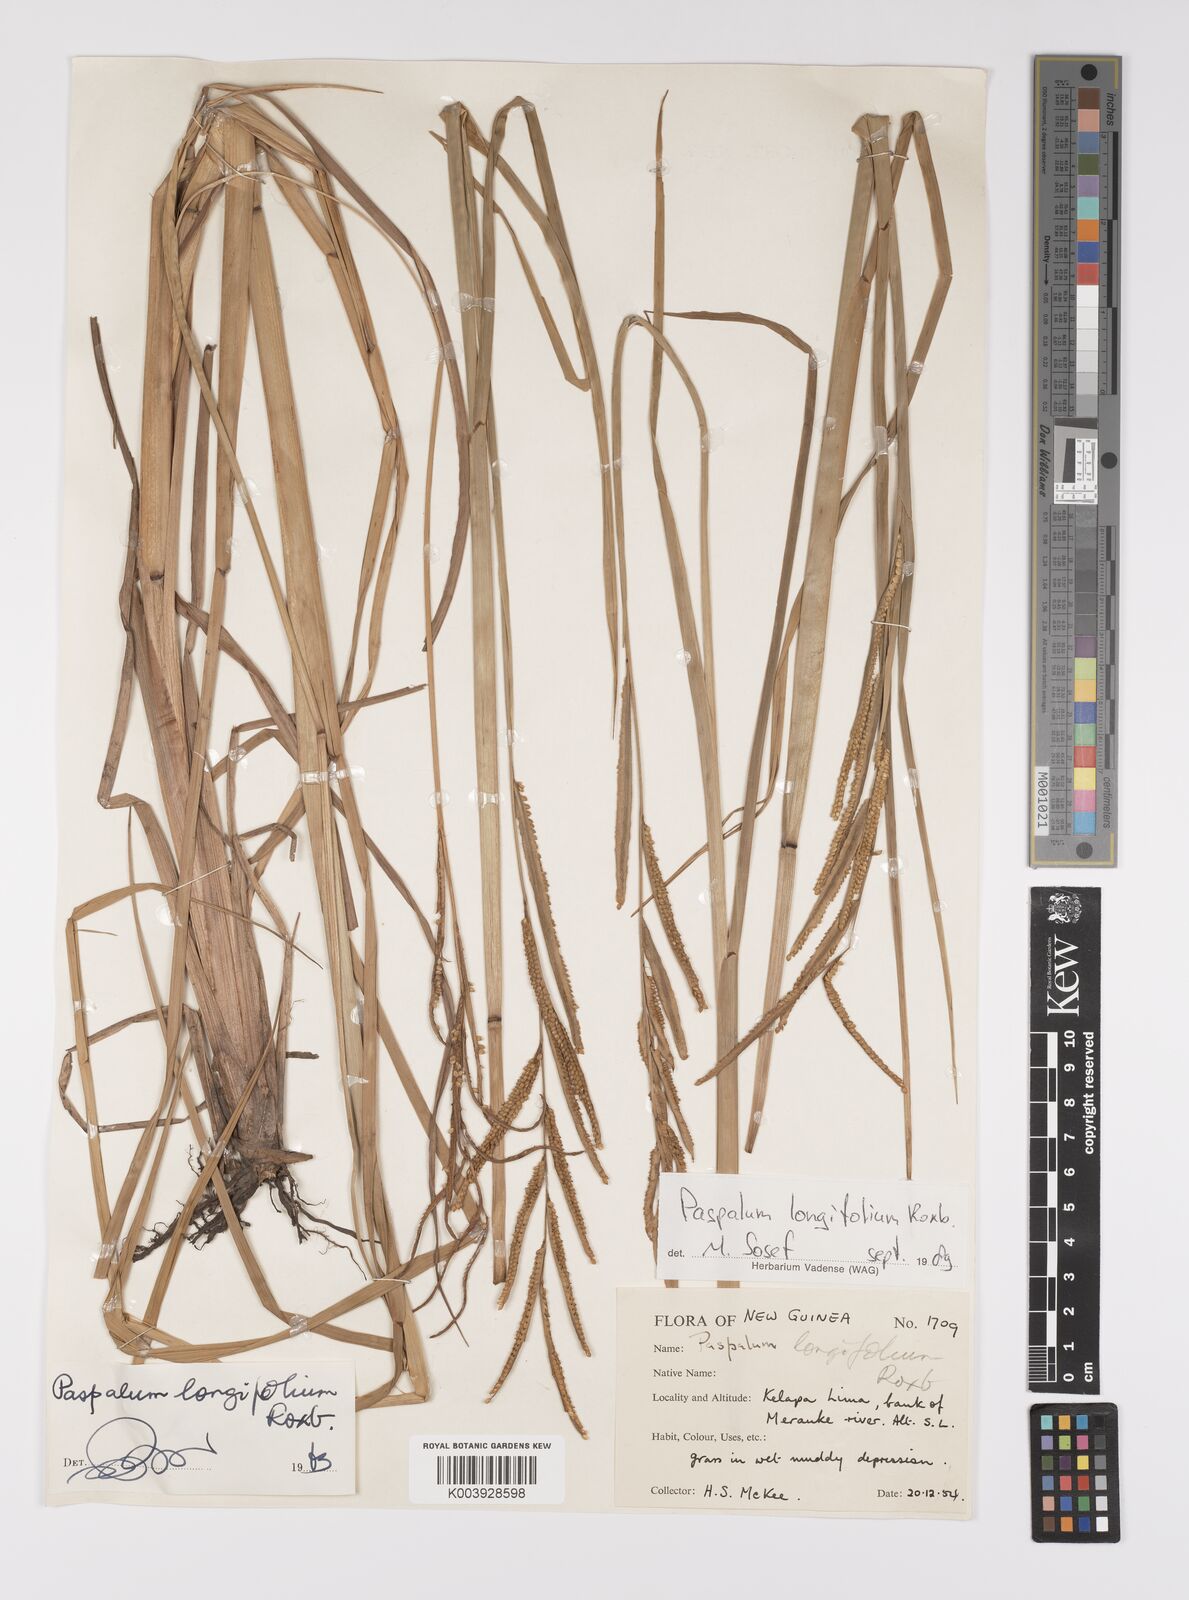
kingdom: Plantae
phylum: Tracheophyta
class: Liliopsida
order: Poales
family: Poaceae
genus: Paspalum
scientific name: Paspalum sumatrense
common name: Long-leaved paspalum
